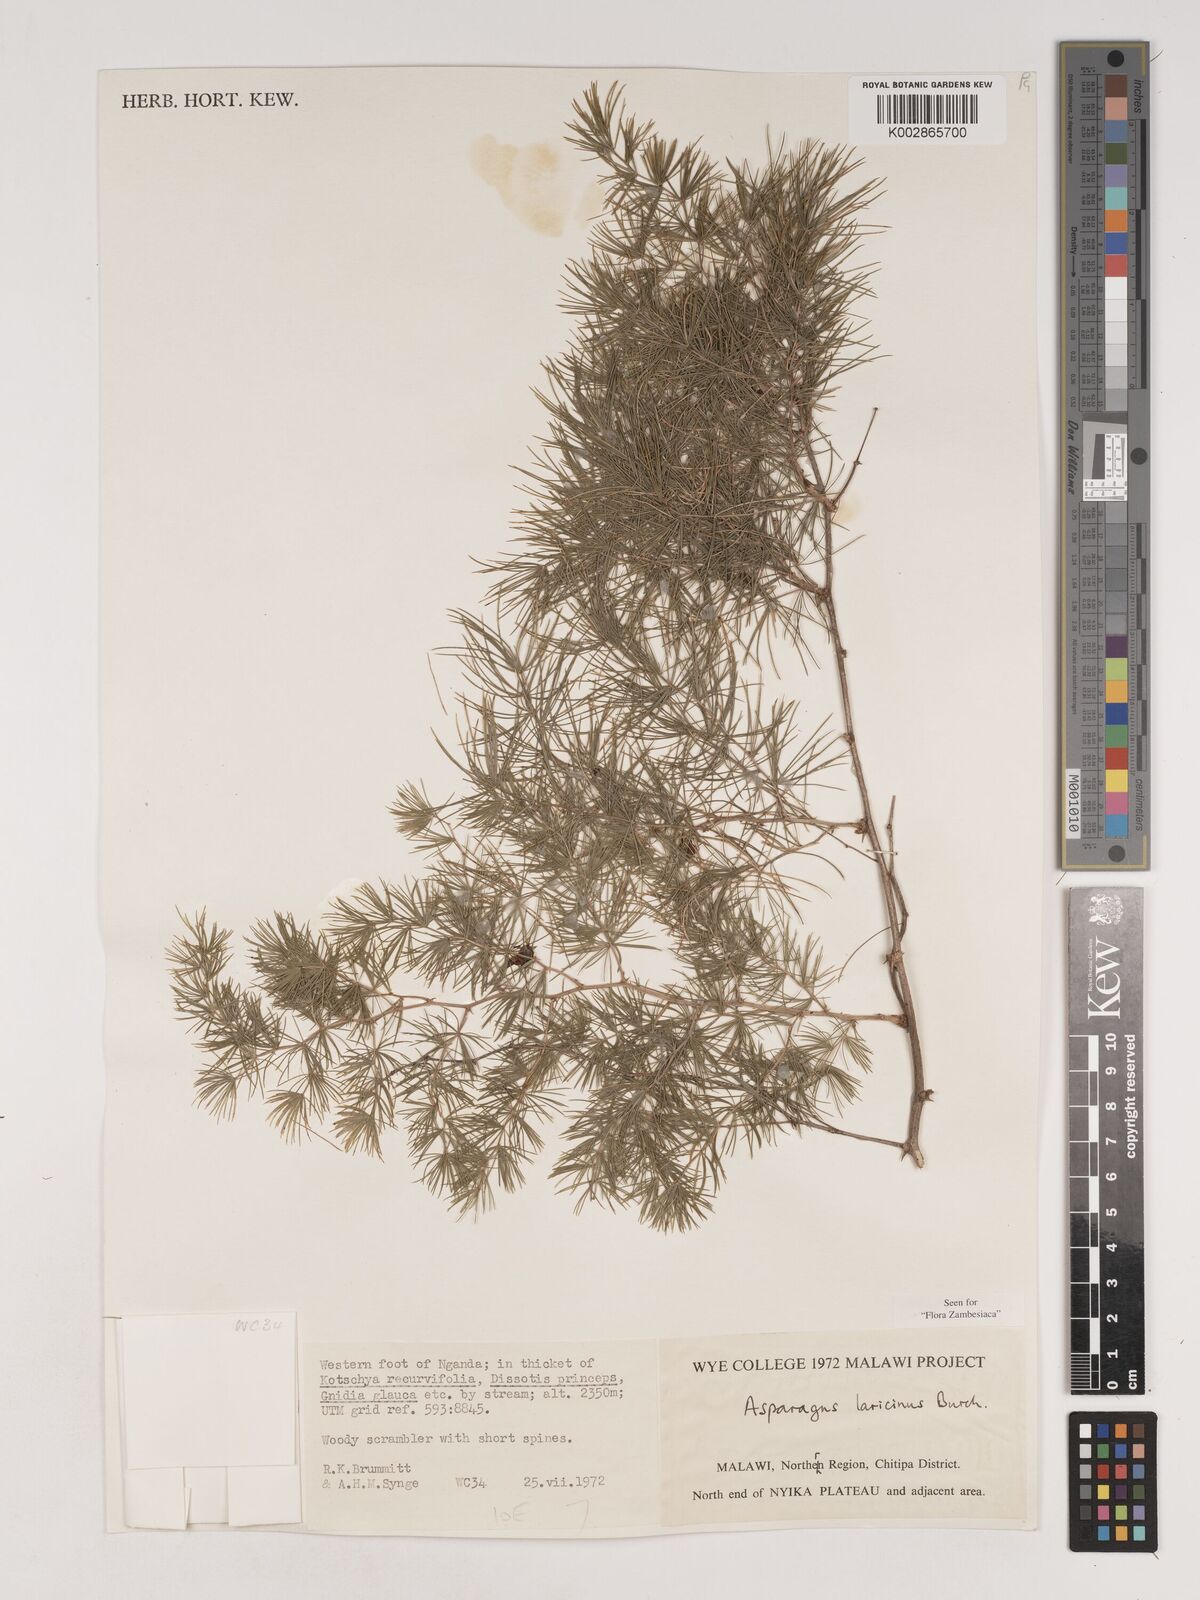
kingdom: Plantae
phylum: Tracheophyta
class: Liliopsida
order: Asparagales
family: Asparagaceae
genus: Asparagus
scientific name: Asparagus laricinus
